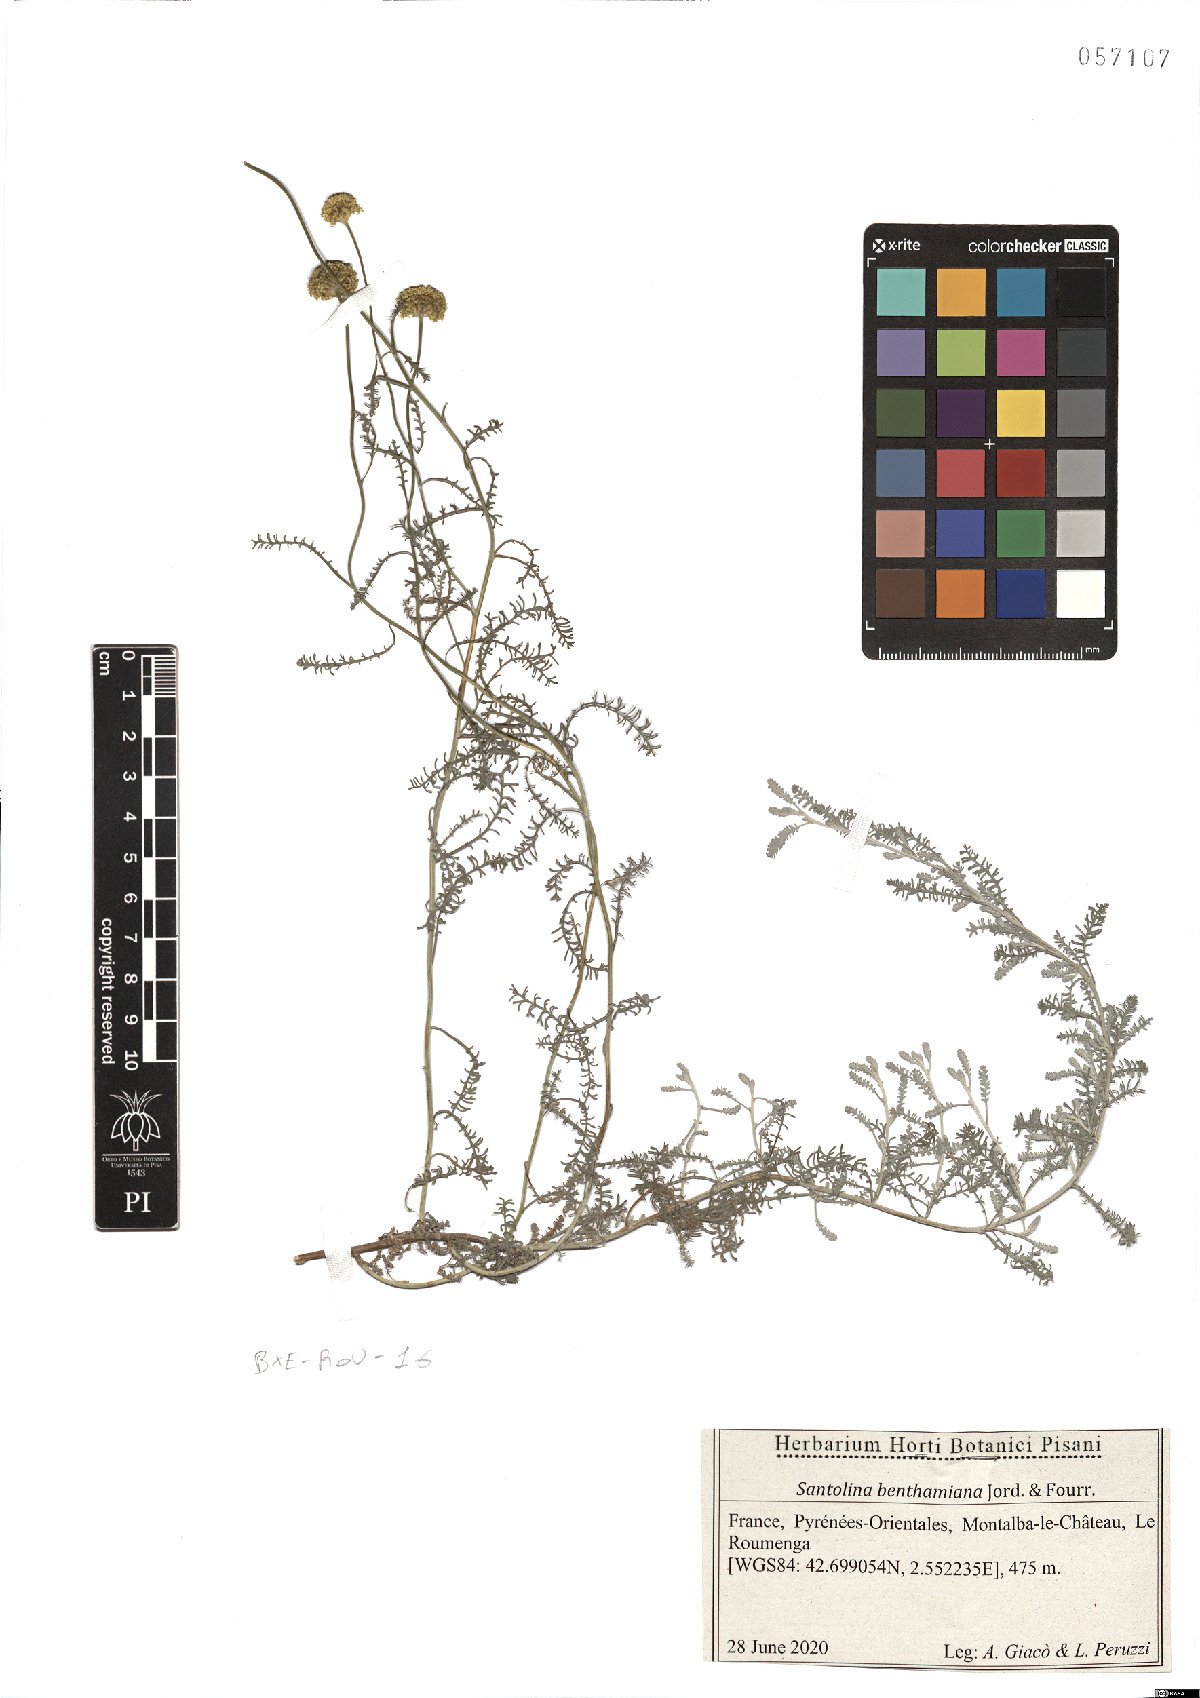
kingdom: Plantae
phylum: Tracheophyta
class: Magnoliopsida
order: Asterales
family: Asteraceae
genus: Santolina
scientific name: Santolina benthamiana
